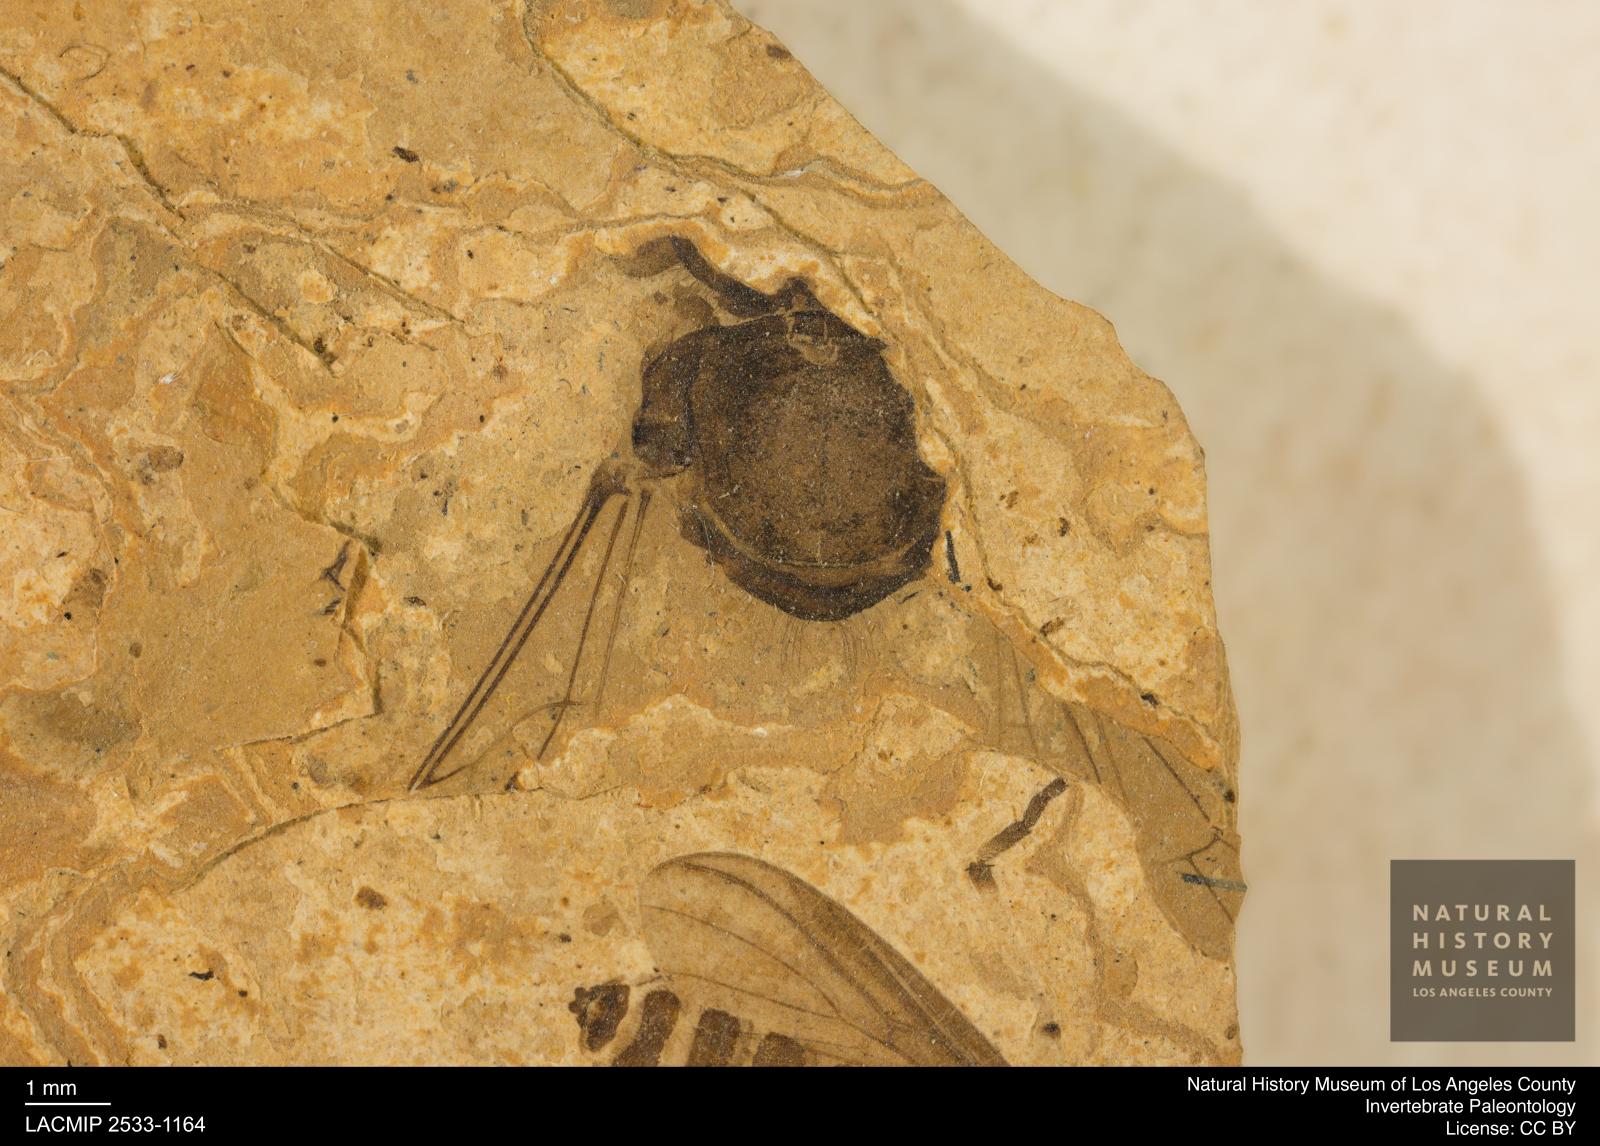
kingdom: Animalia
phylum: Arthropoda
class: Insecta
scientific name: Insecta
